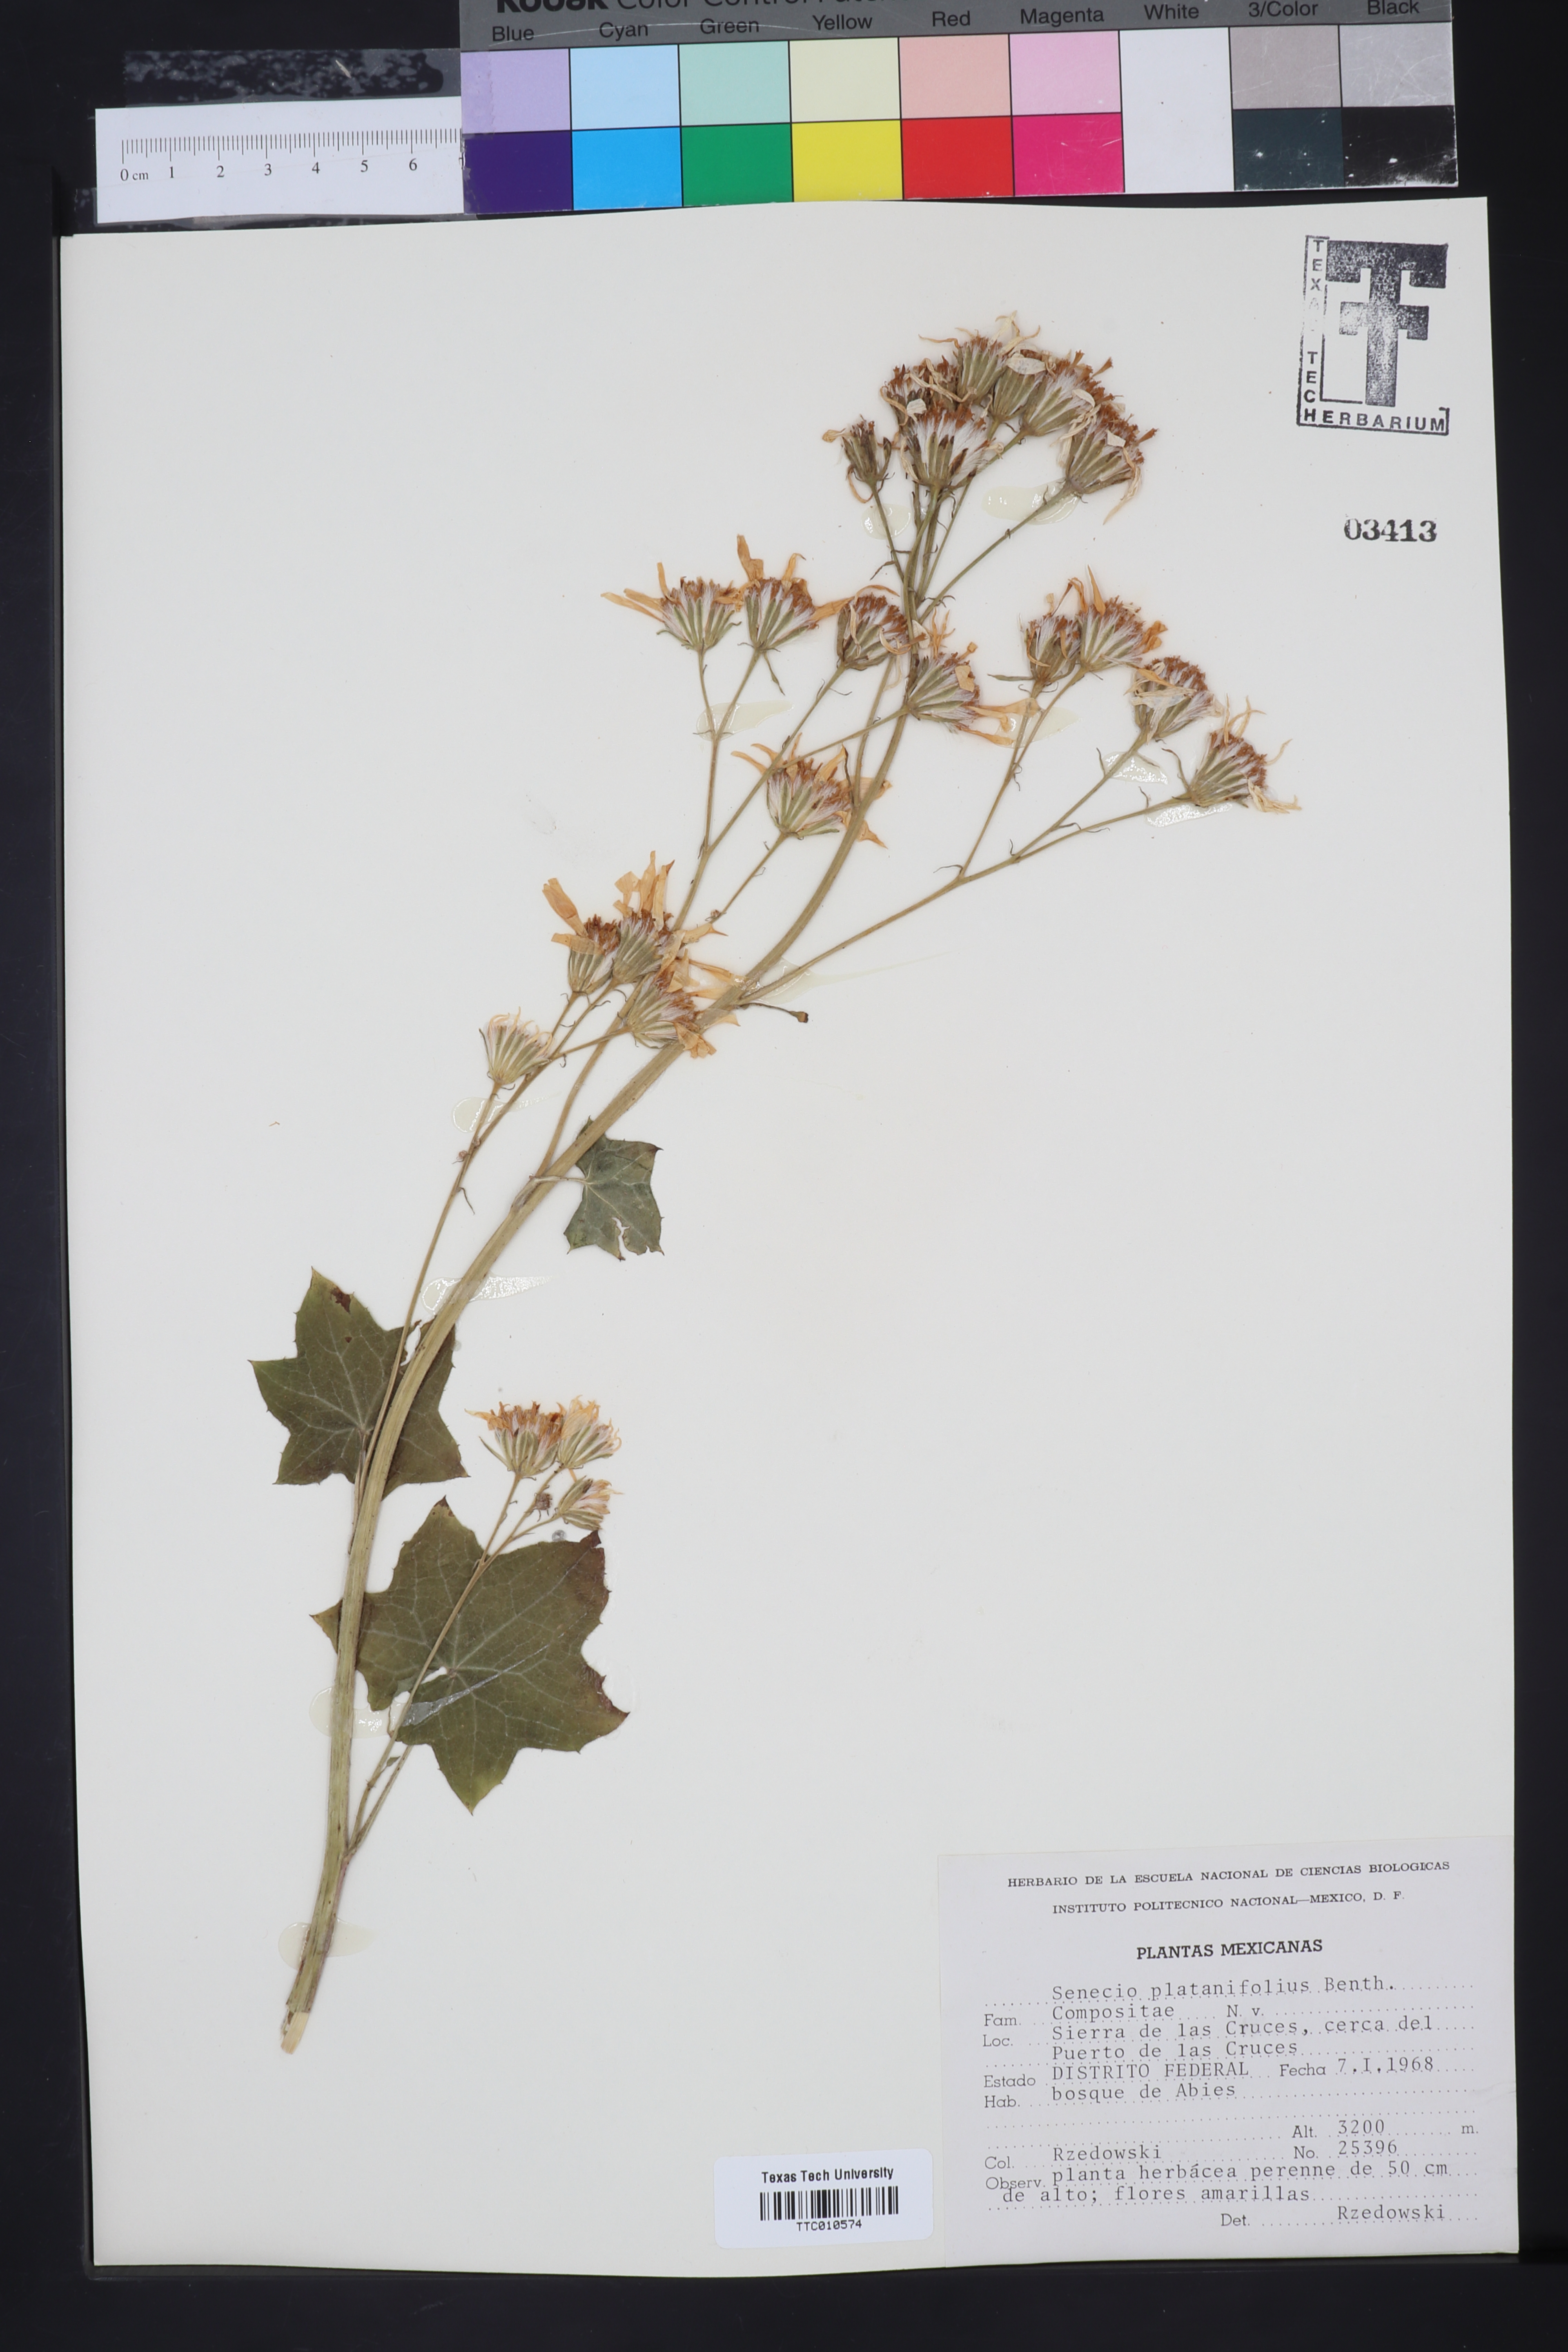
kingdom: Plantae
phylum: Tracheophyta
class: Magnoliopsida
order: Asterales
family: Asteraceae
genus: Roldana
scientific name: Roldana platanifolia
